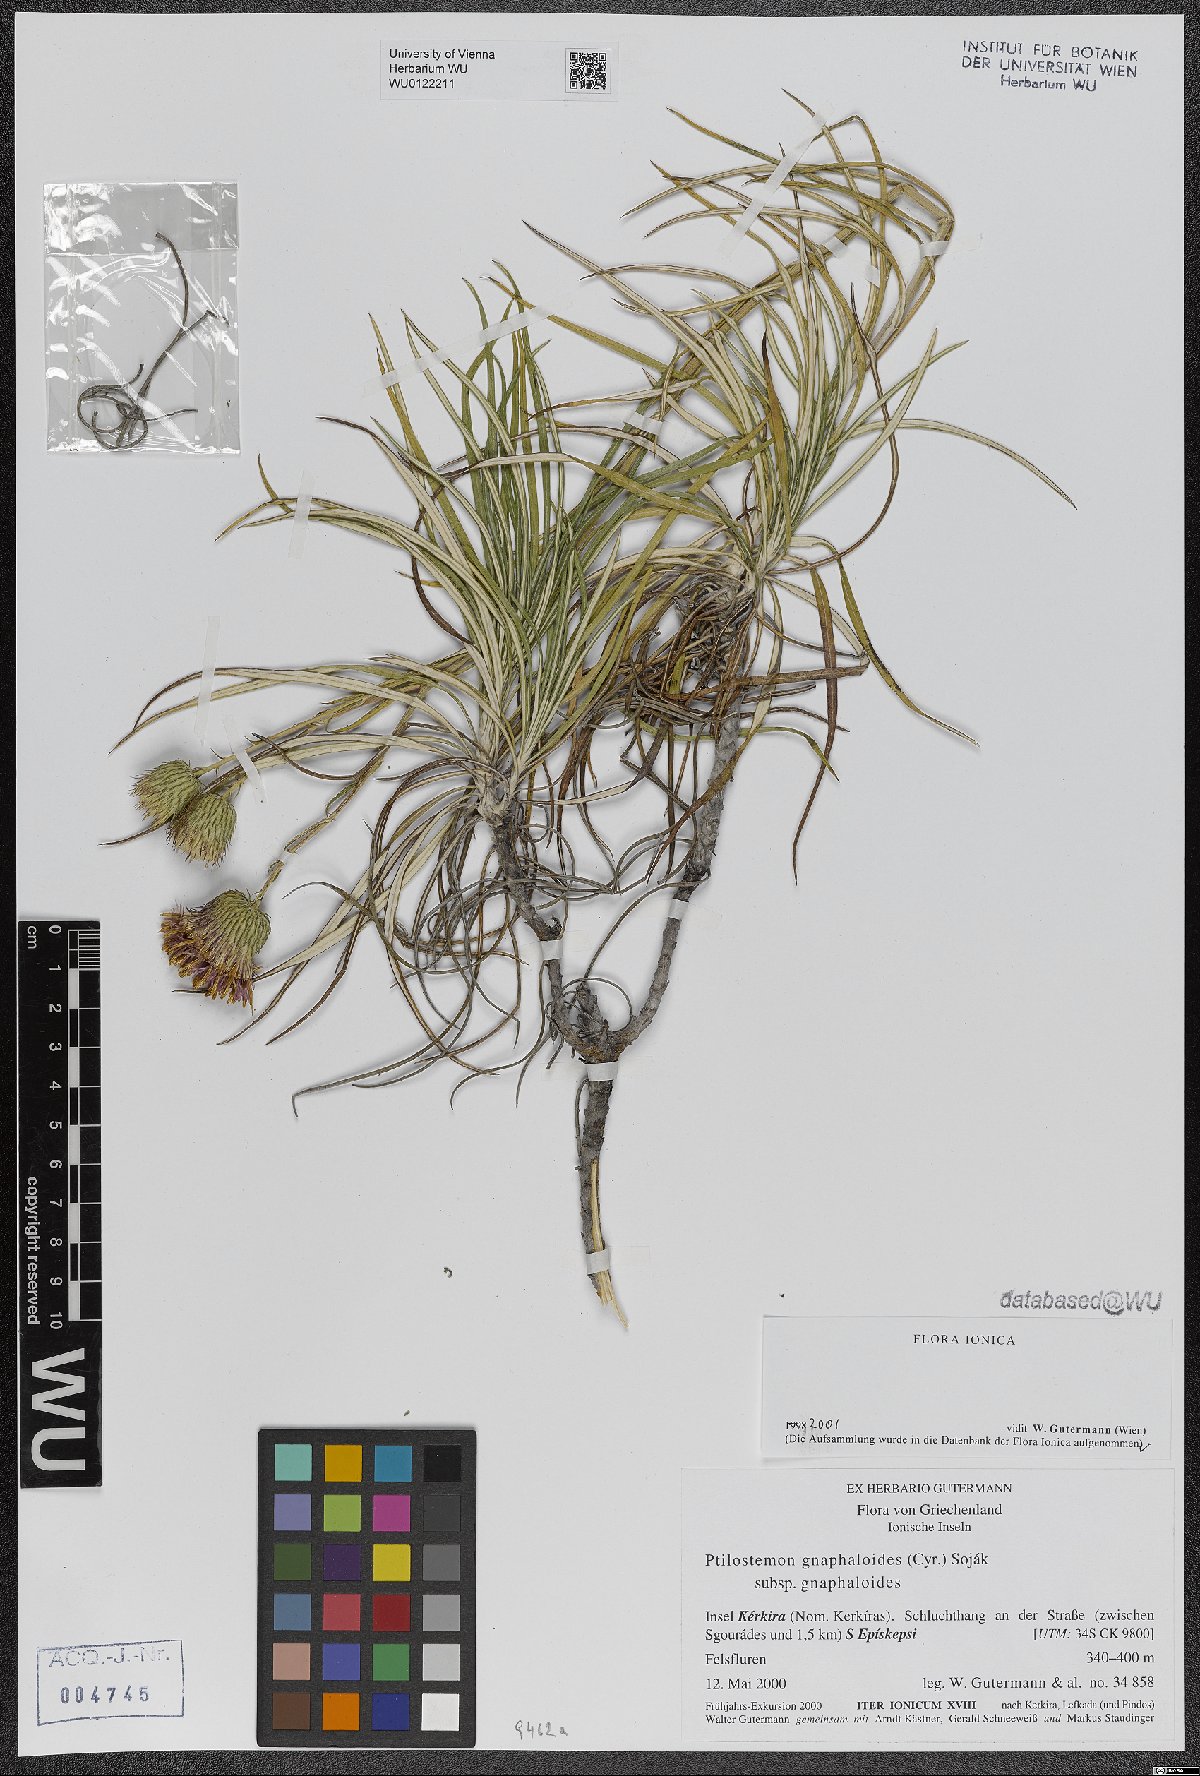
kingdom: Plantae
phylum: Tracheophyta
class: Magnoliopsida
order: Asterales
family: Asteraceae
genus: Ptilostemon
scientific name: Ptilostemon gnaphaloides
